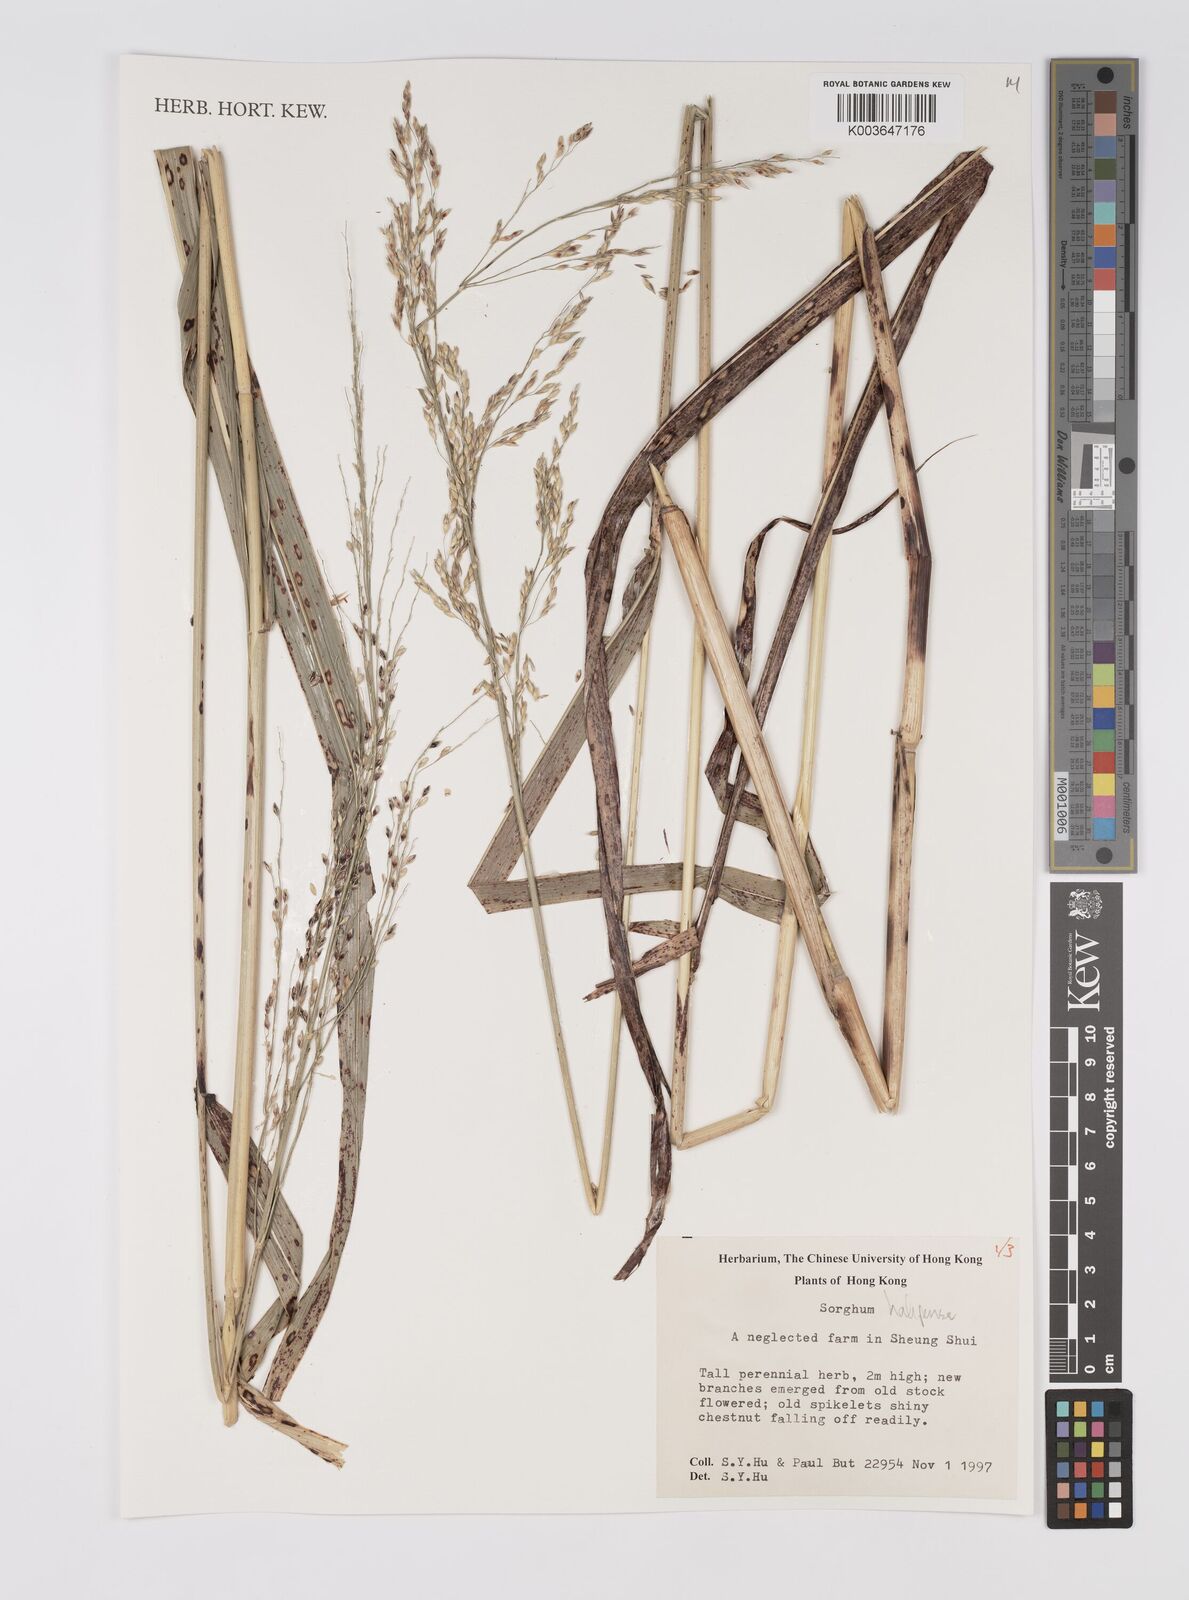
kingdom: Plantae
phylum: Tracheophyta
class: Liliopsida
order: Poales
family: Poaceae
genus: Sorghum
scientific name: Sorghum halepense
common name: Johnson-grass
